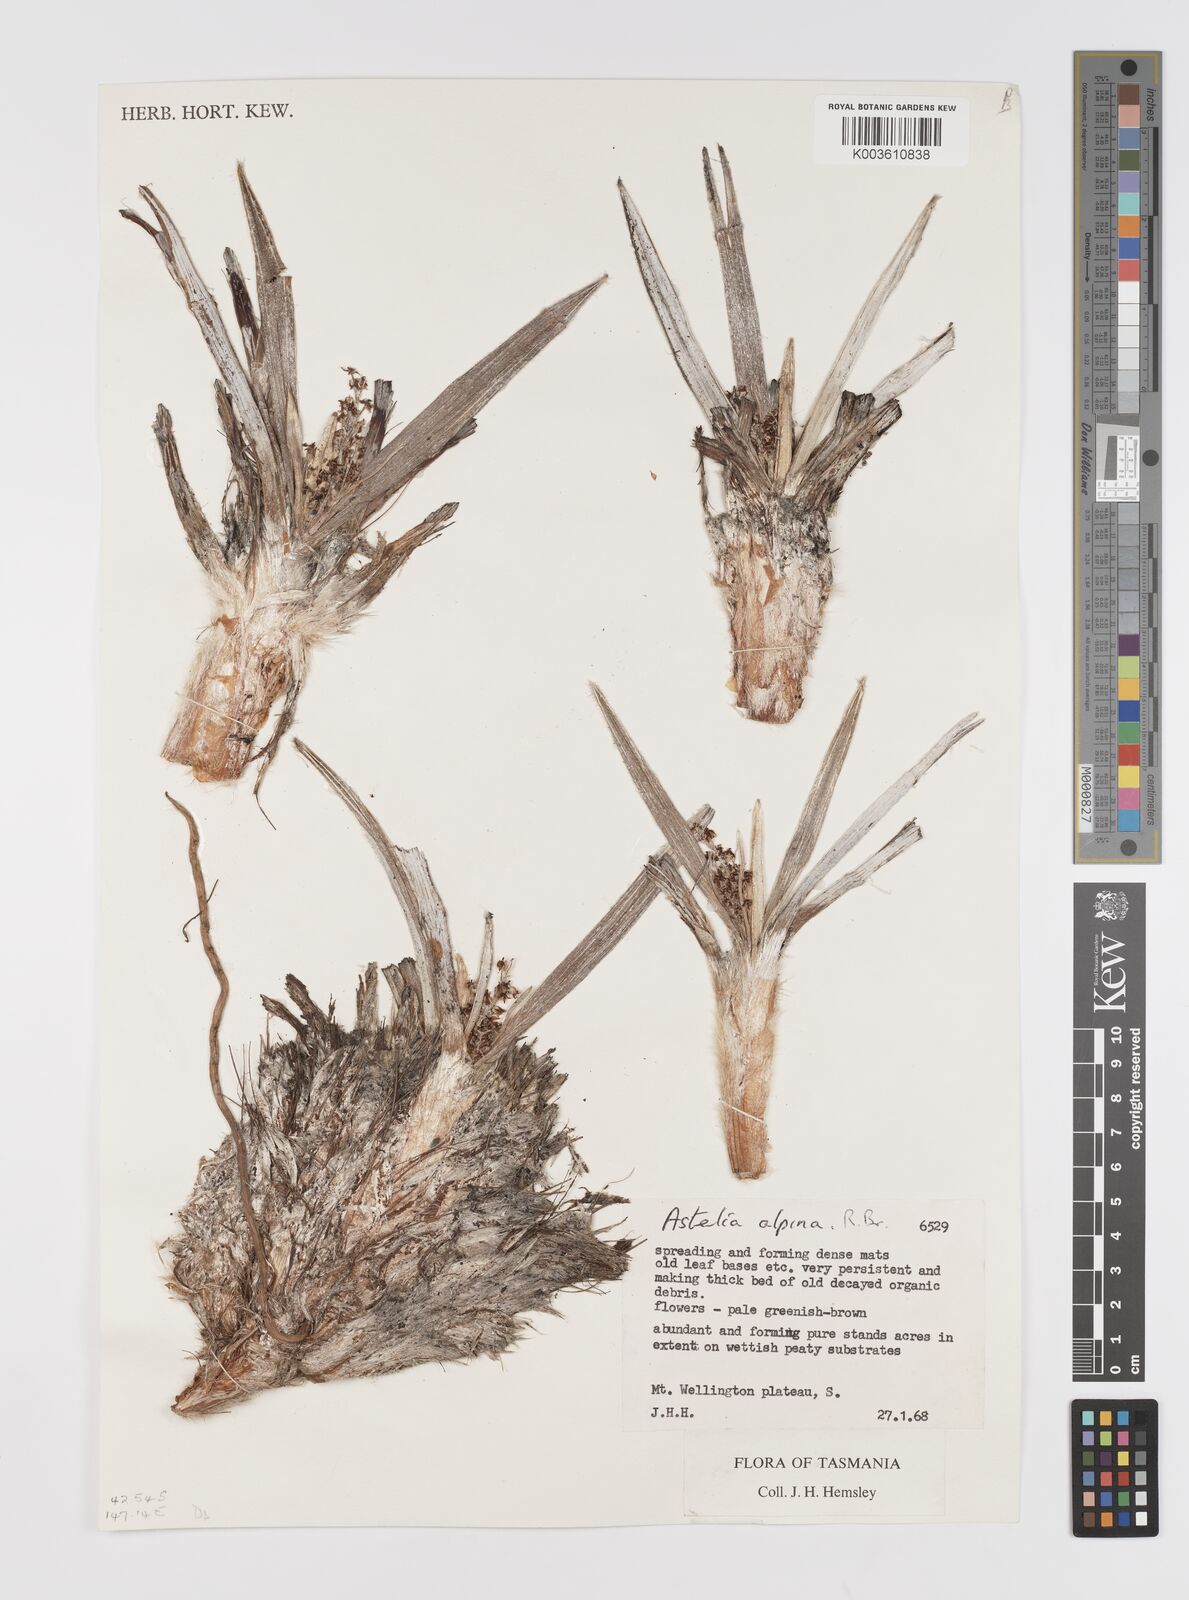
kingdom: Plantae
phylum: Tracheophyta
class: Liliopsida
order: Asparagales
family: Asteliaceae
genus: Astelia
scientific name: Astelia alpina
